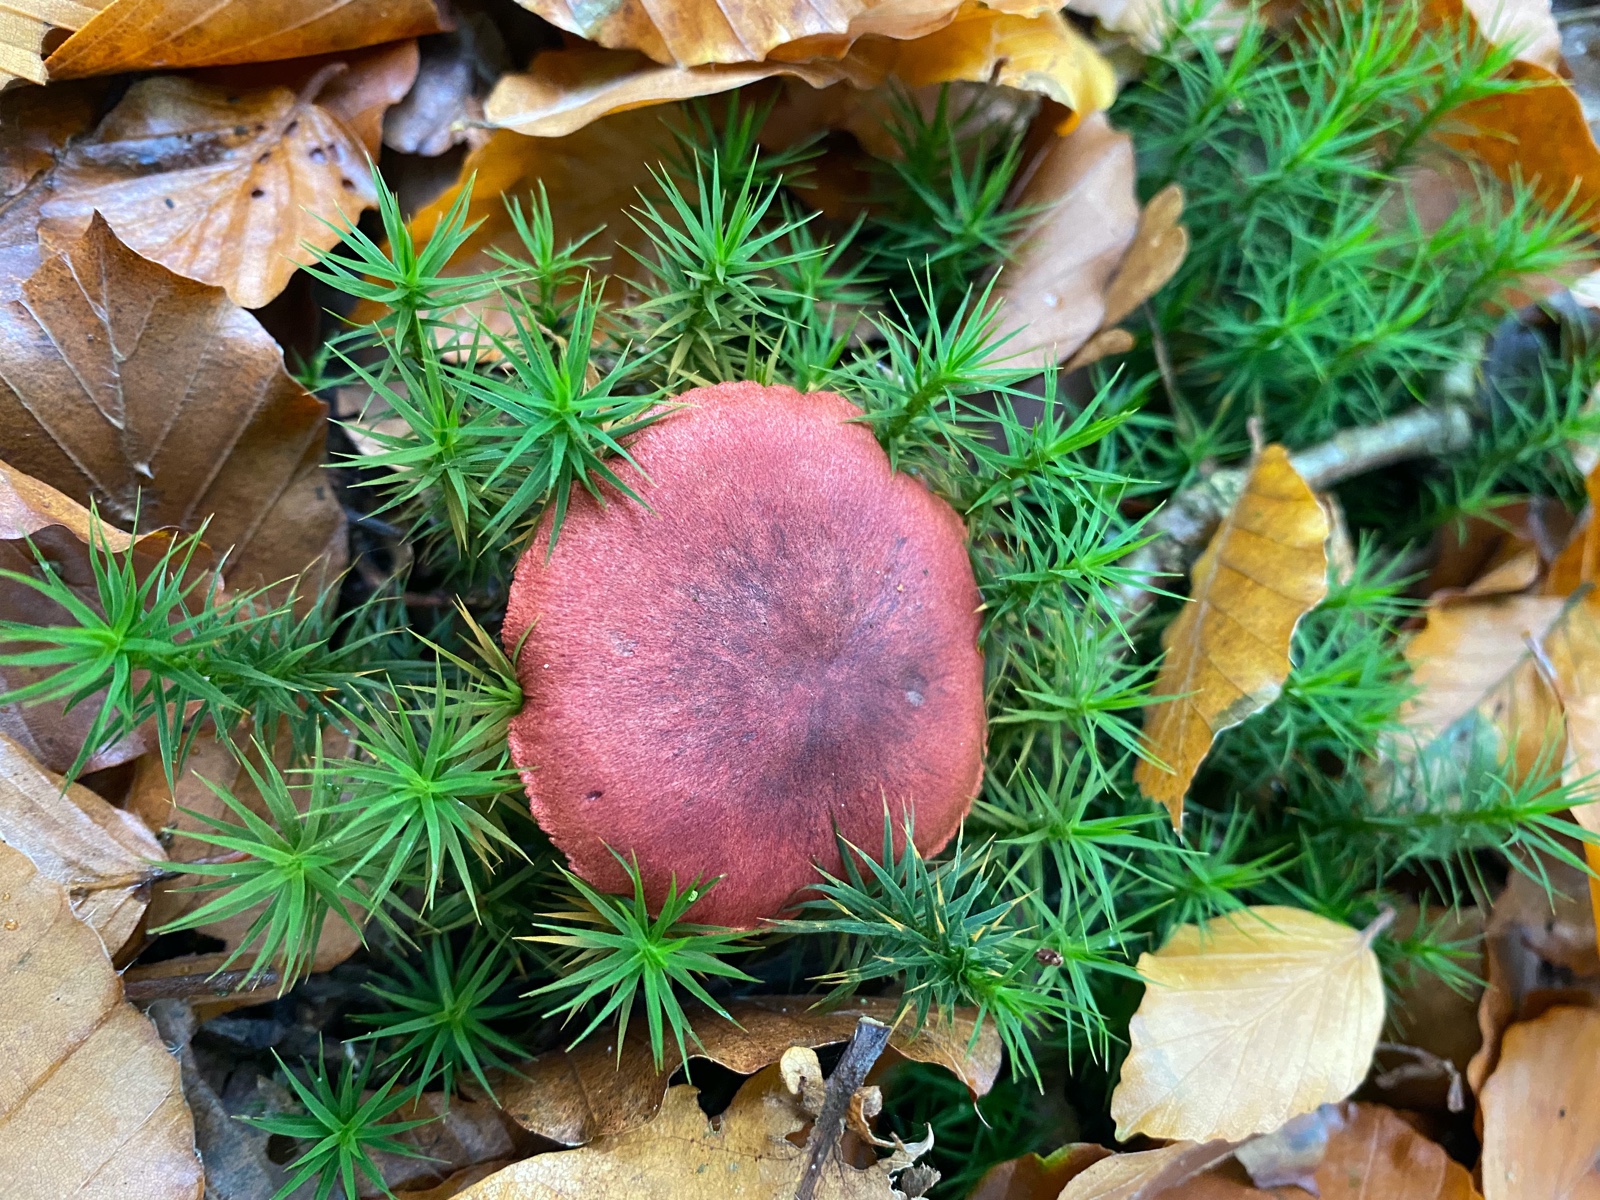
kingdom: Fungi
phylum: Basidiomycota
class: Agaricomycetes
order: Agaricales
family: Cortinariaceae
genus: Cortinarius
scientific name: Cortinarius sanguineus
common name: Bloodred webcap
